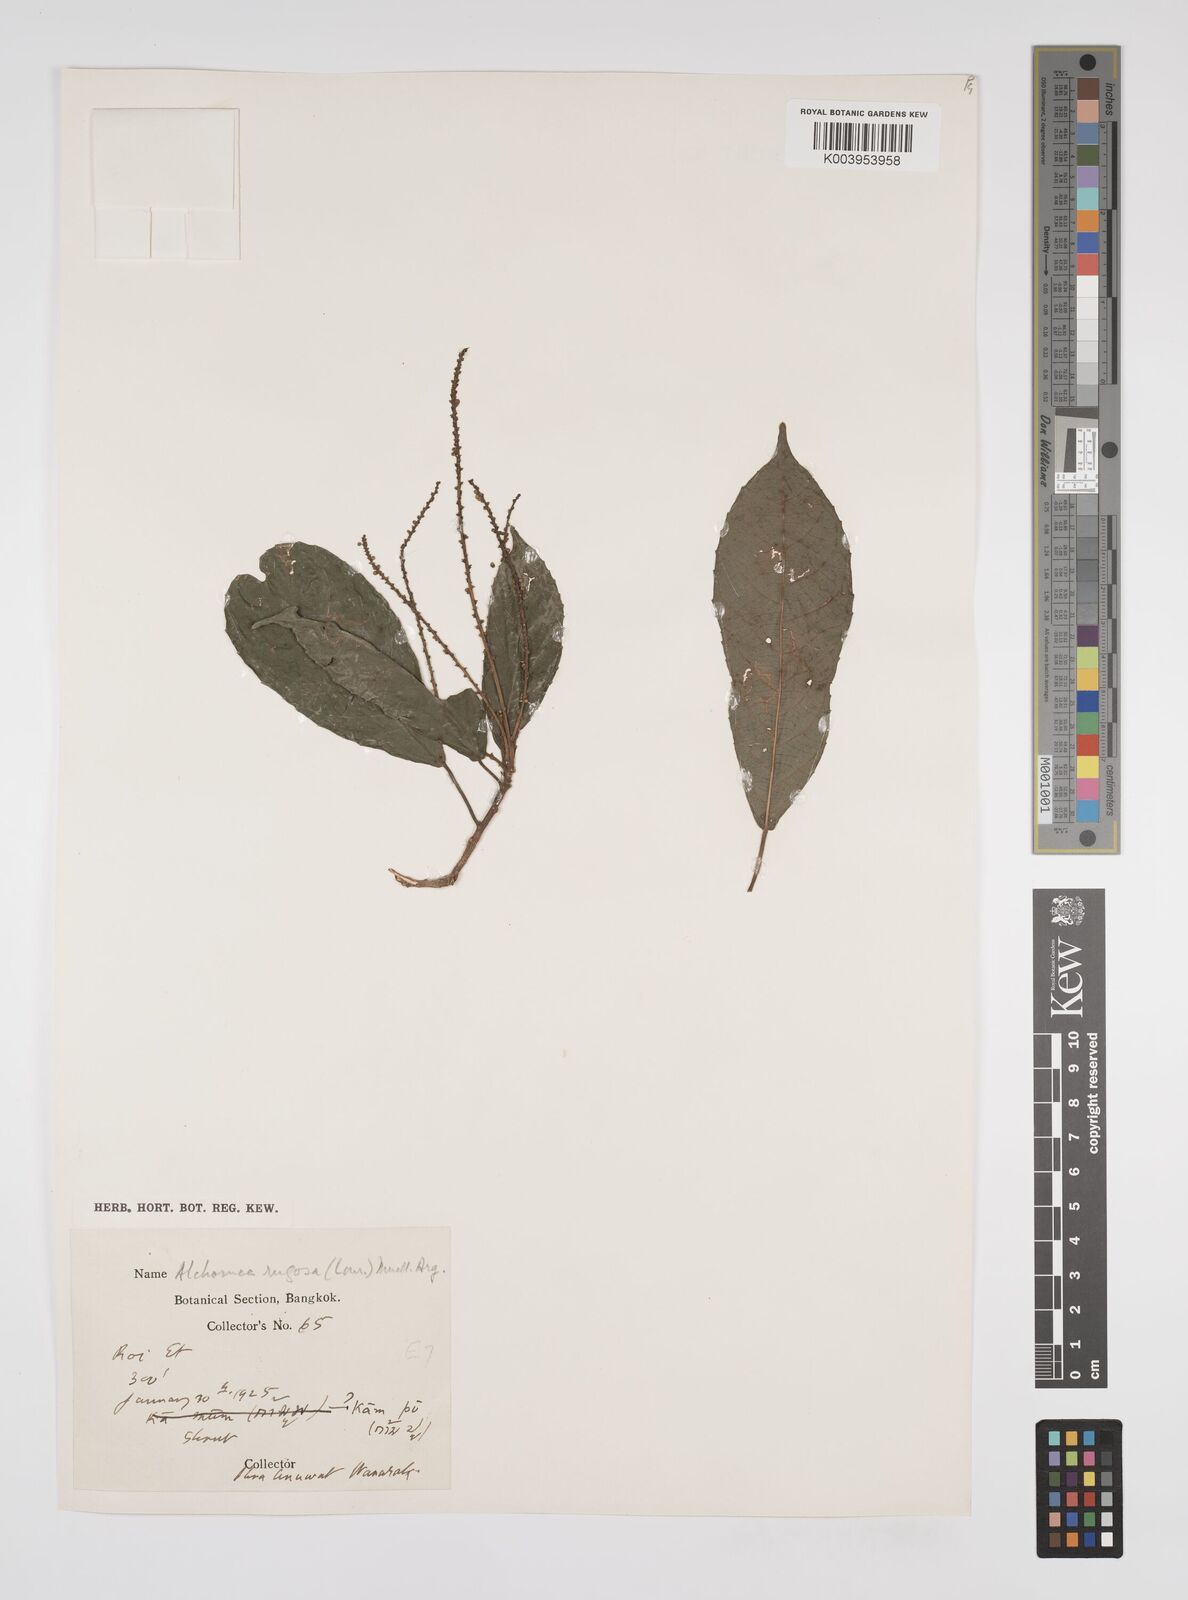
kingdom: Plantae
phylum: Tracheophyta
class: Magnoliopsida
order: Malpighiales
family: Euphorbiaceae
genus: Alchornea
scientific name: Alchornea rugosa
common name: Alchorntree
